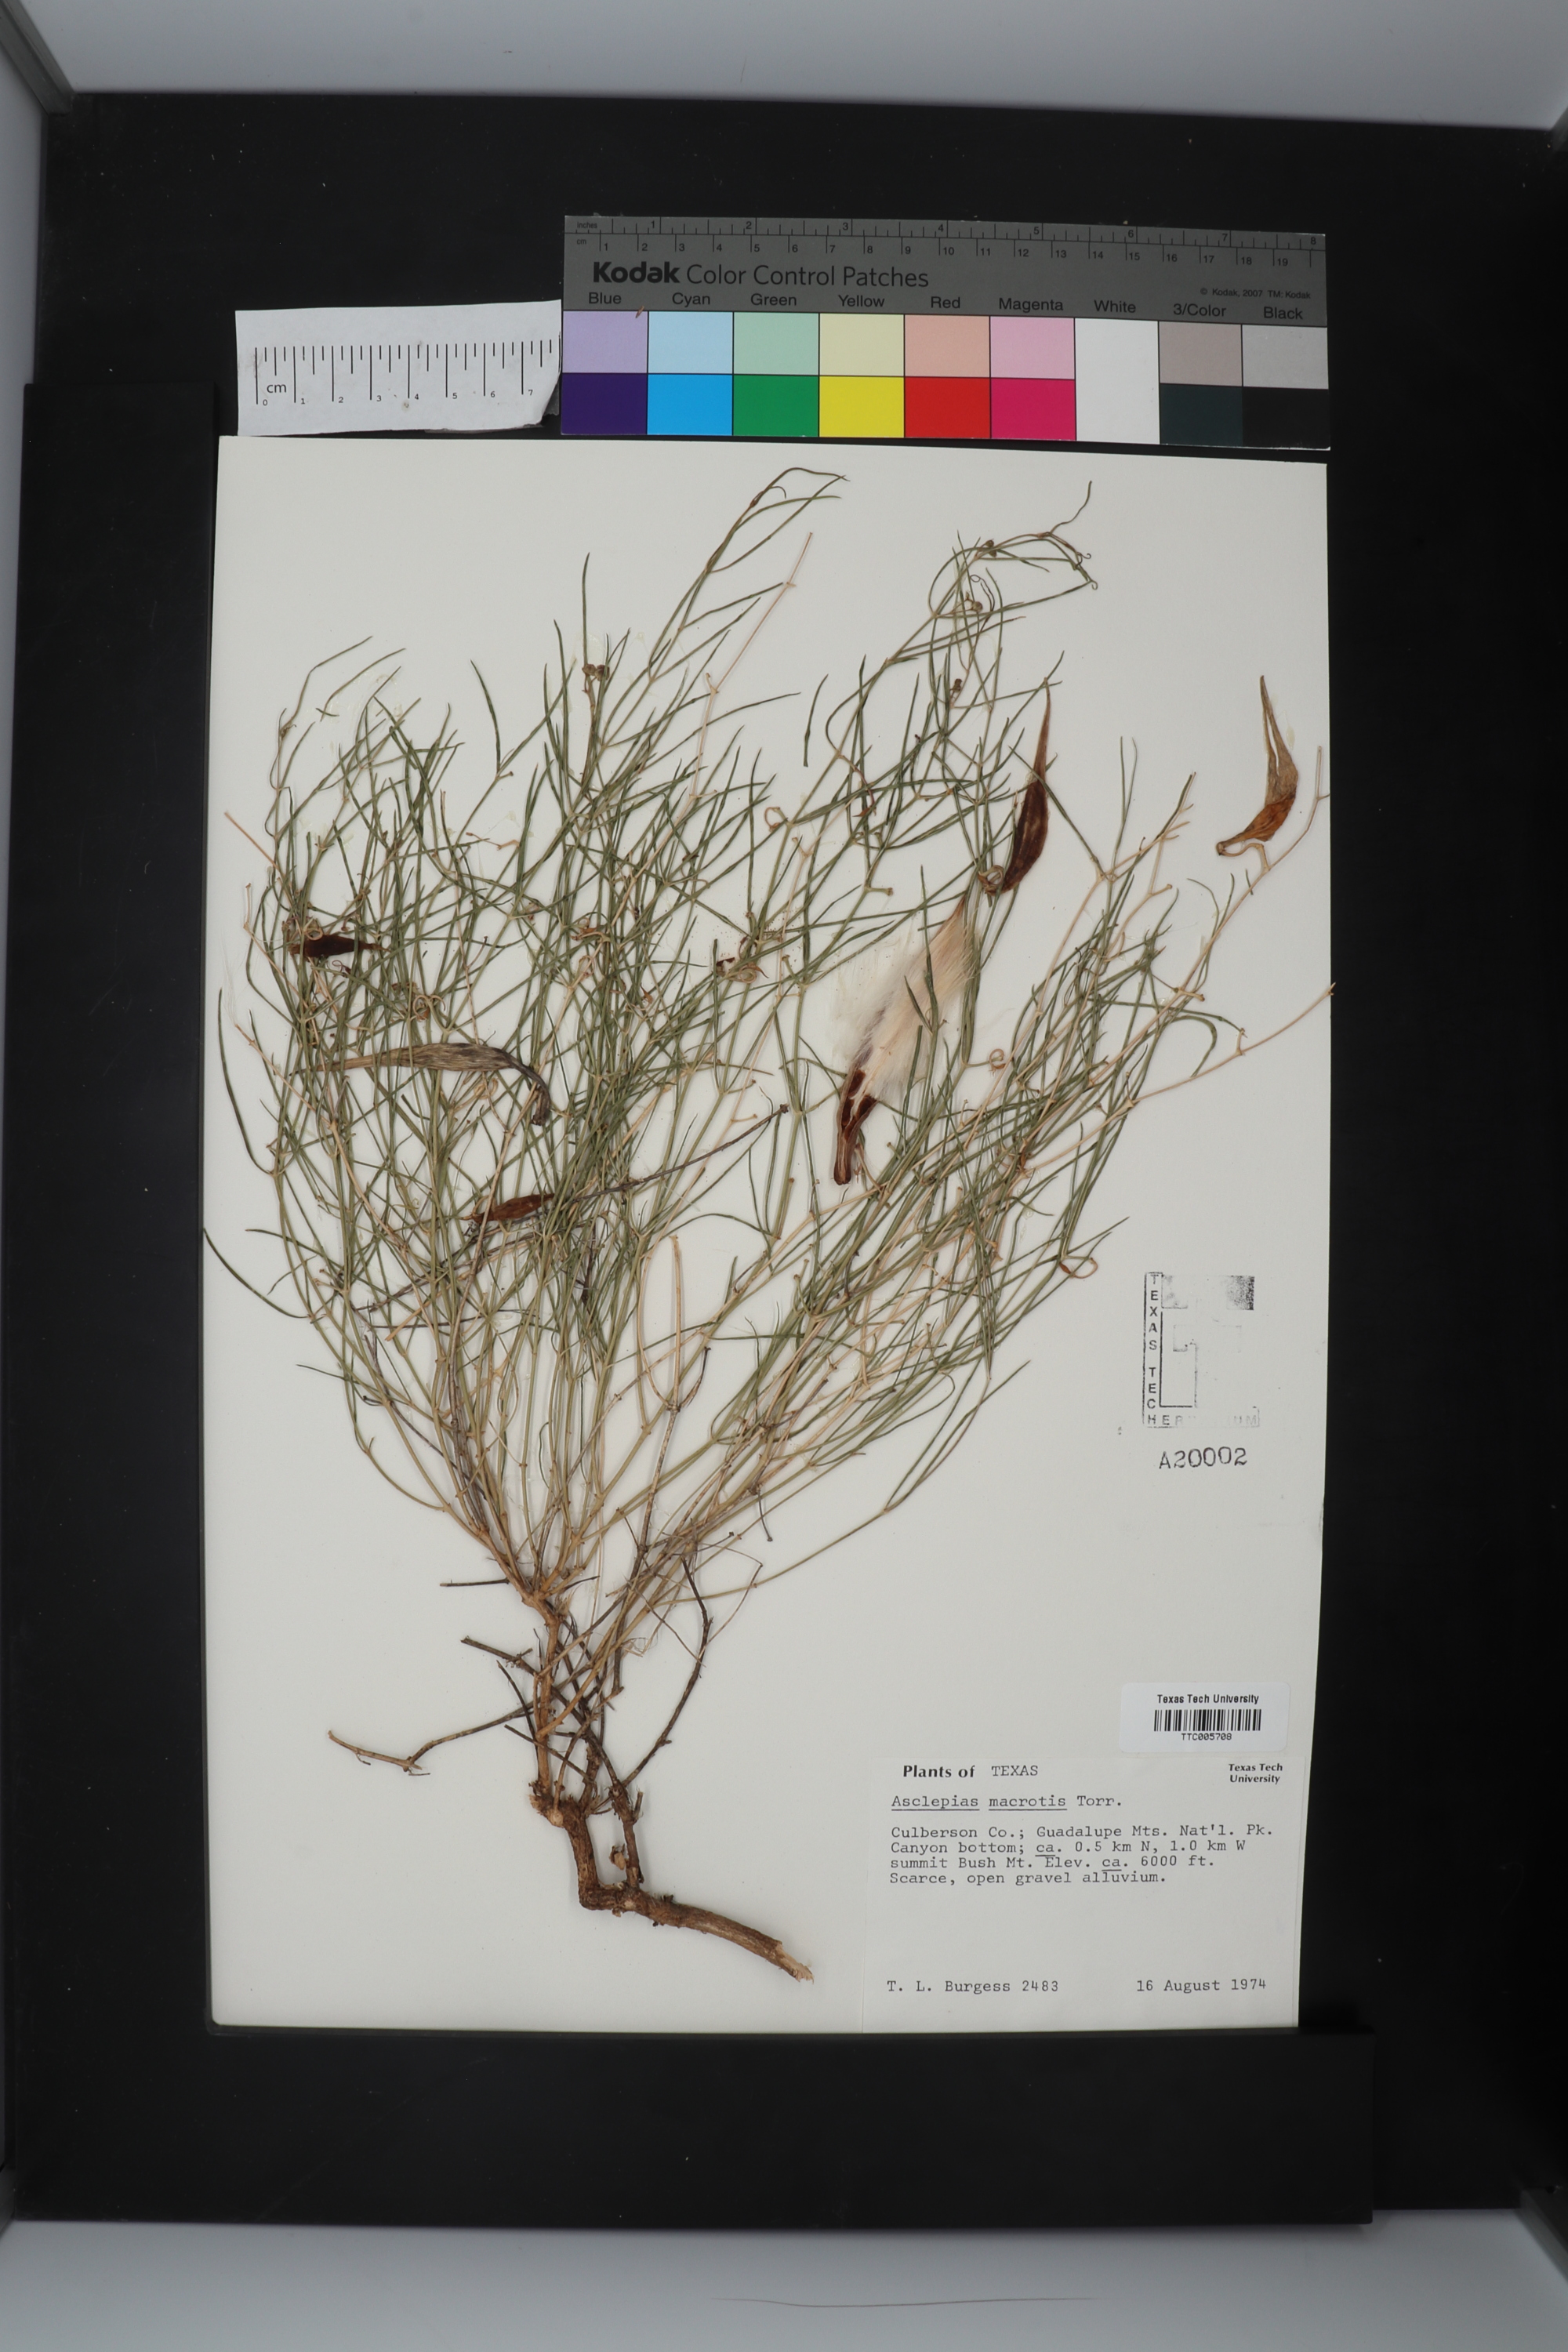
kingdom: Plantae
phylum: Tracheophyta
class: Magnoliopsida
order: Gentianales
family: Apocynaceae
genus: Asclepias
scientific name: Asclepias macrotis
